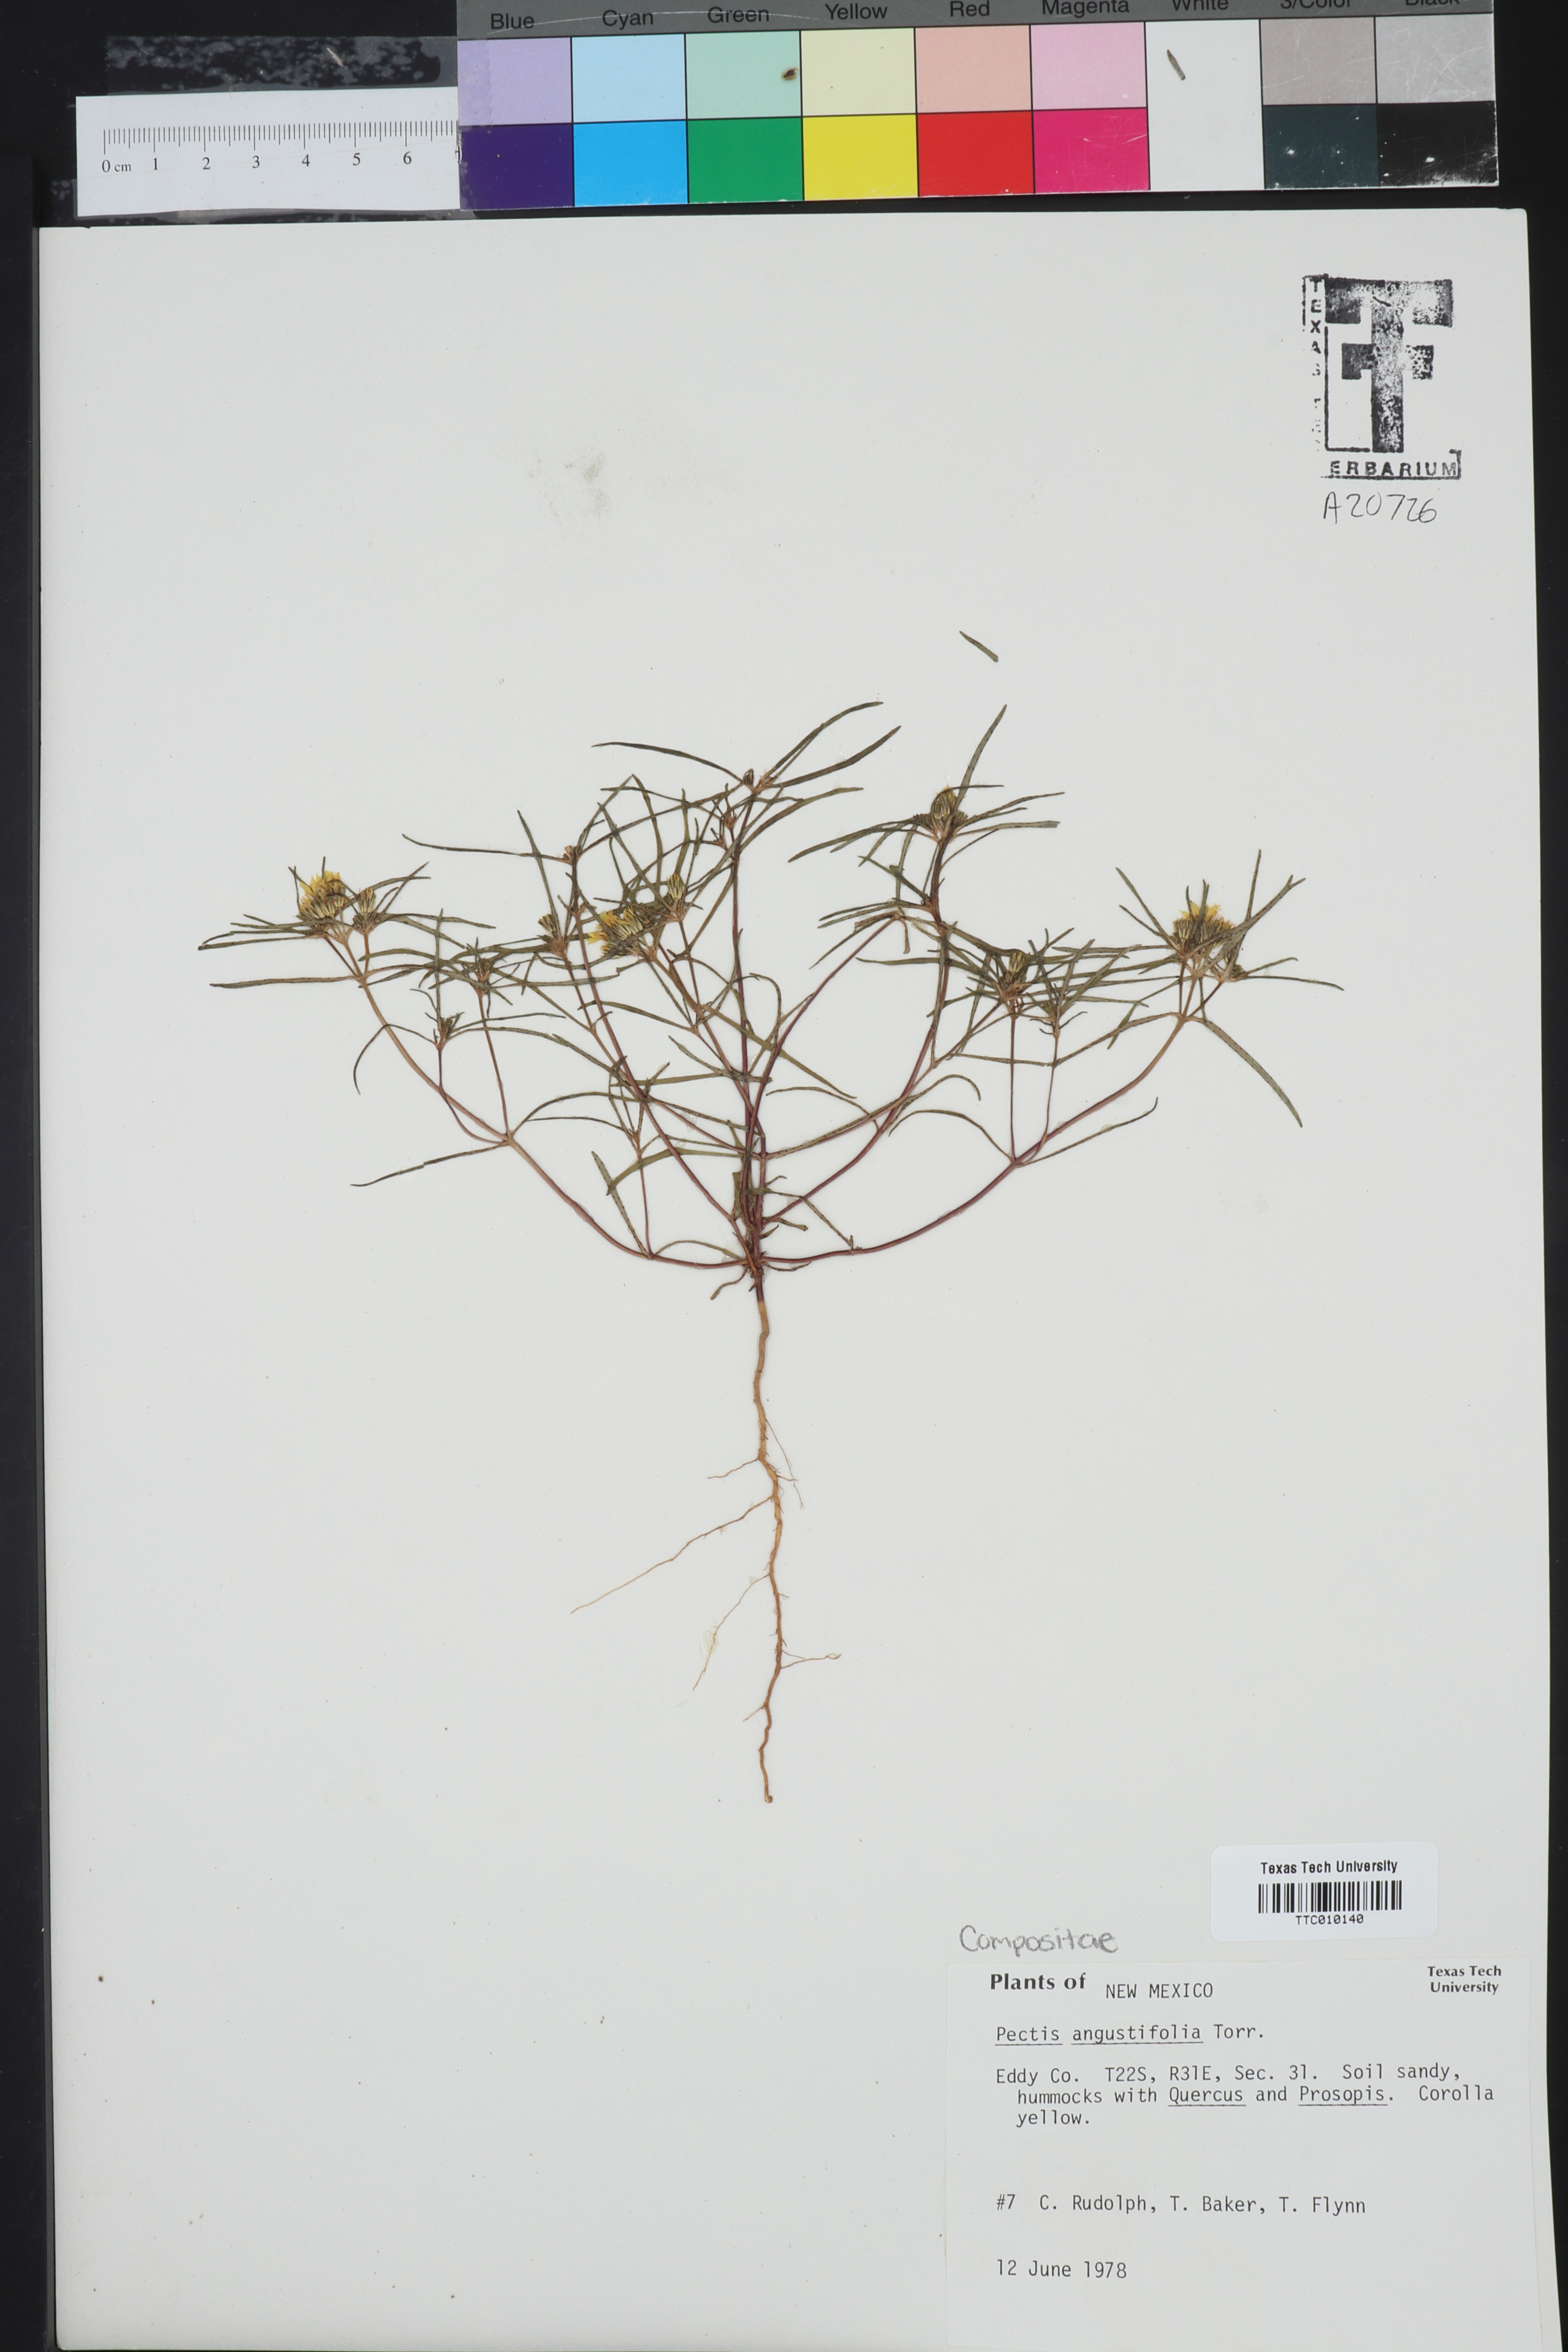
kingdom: Plantae
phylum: Tracheophyta
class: Magnoliopsida
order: Asterales
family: Asteraceae
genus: Pectis
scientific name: Pectis angustifolia
